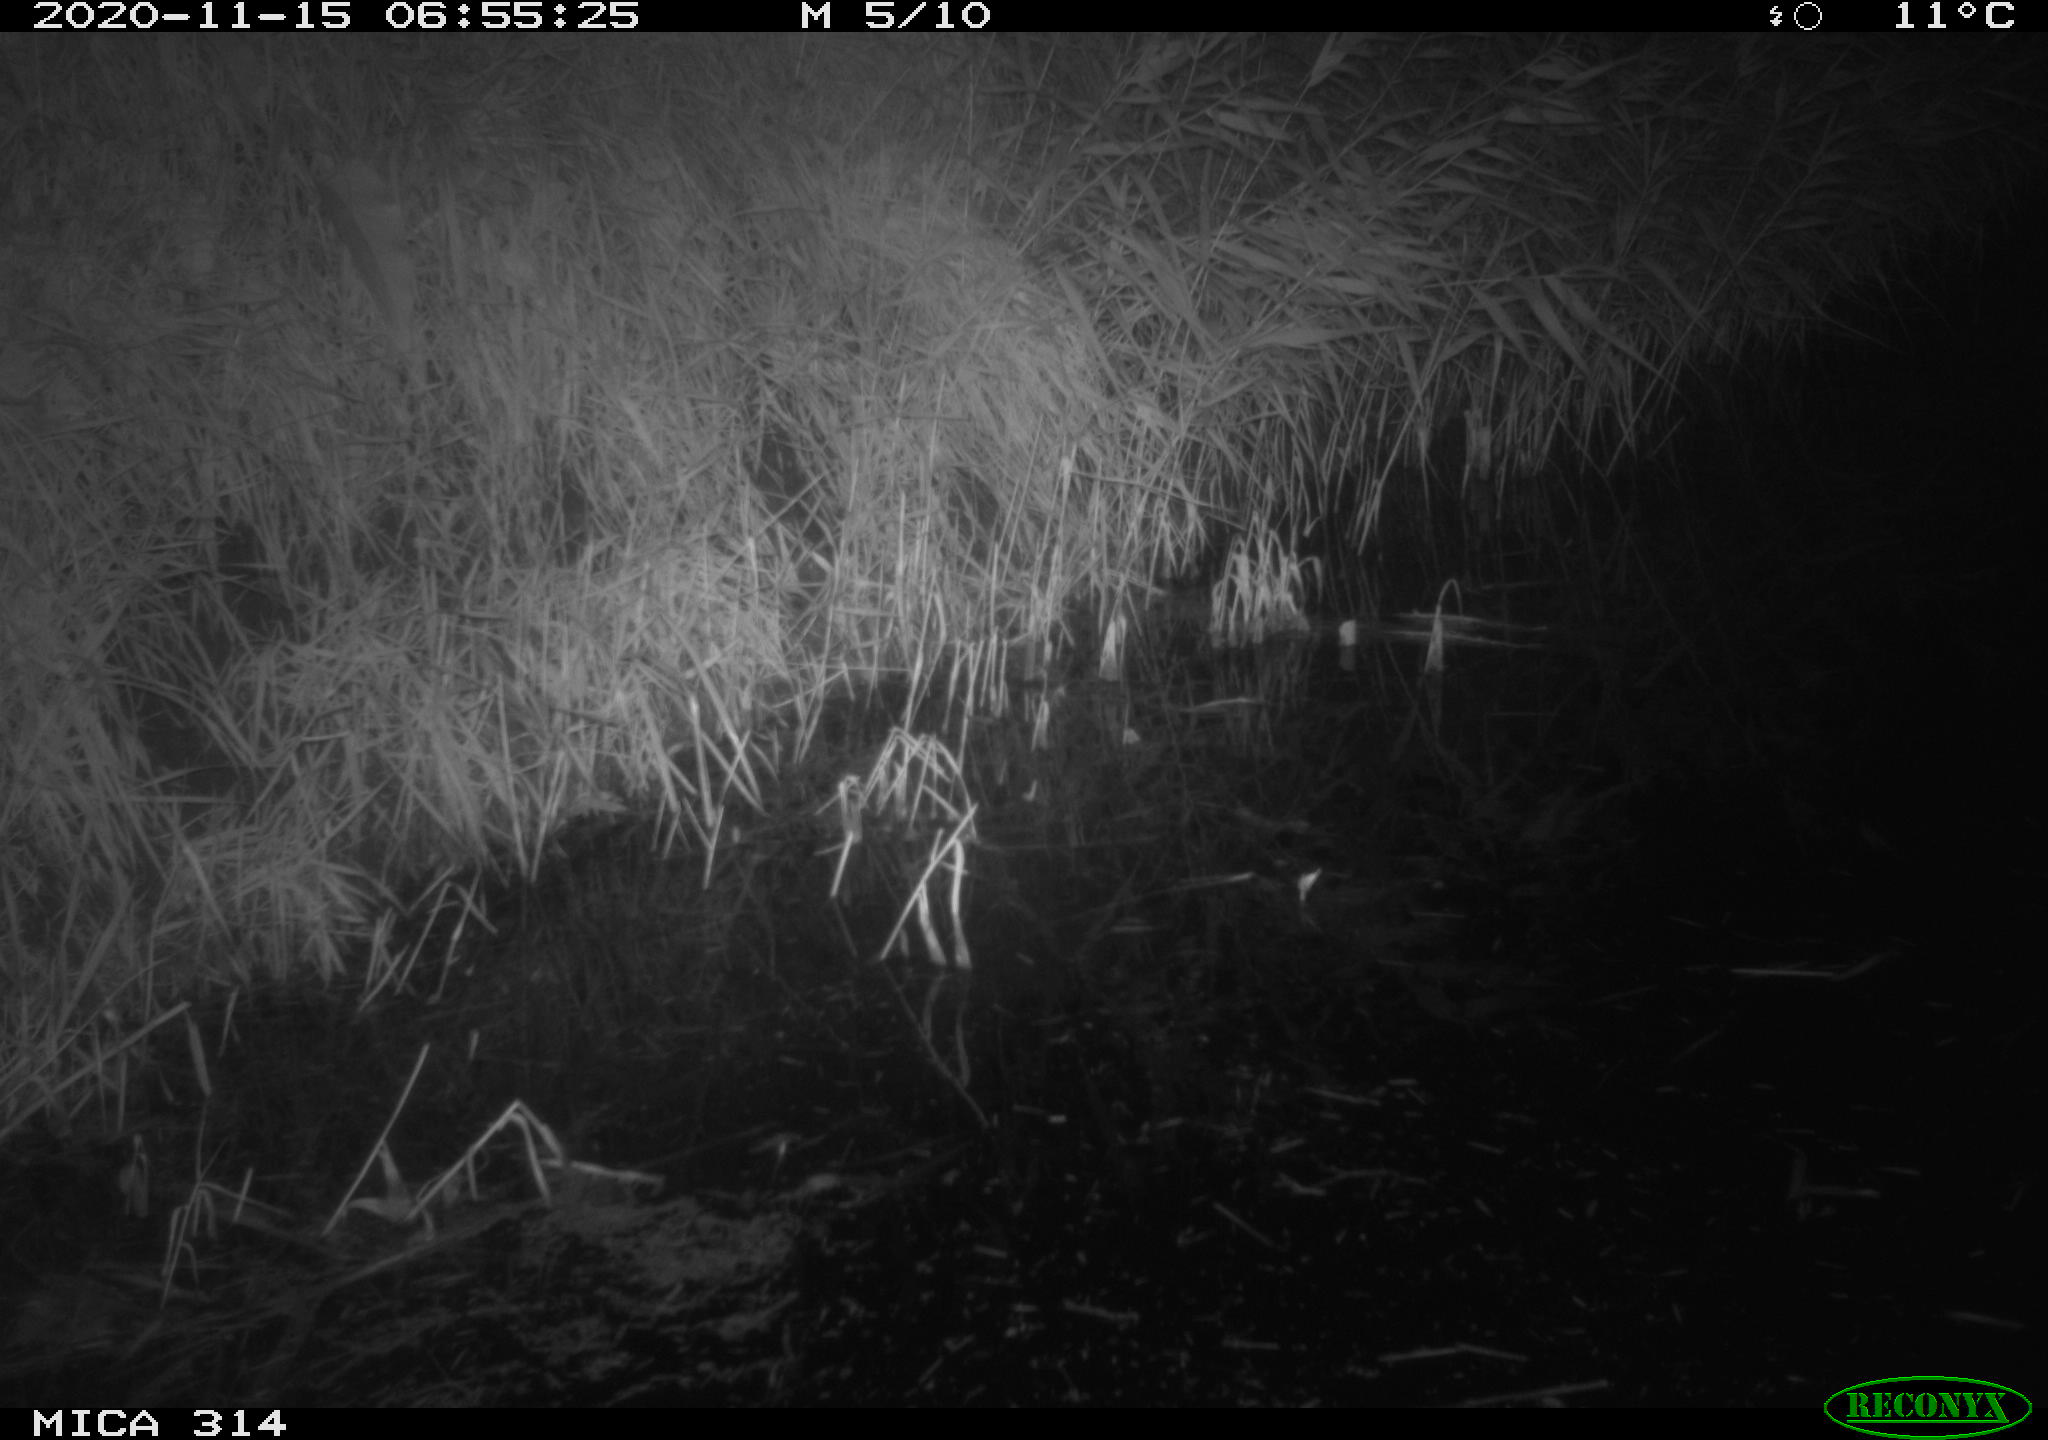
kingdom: Animalia
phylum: Chordata
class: Mammalia
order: Rodentia
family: Muridae
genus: Rattus
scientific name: Rattus norvegicus
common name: Brown rat
